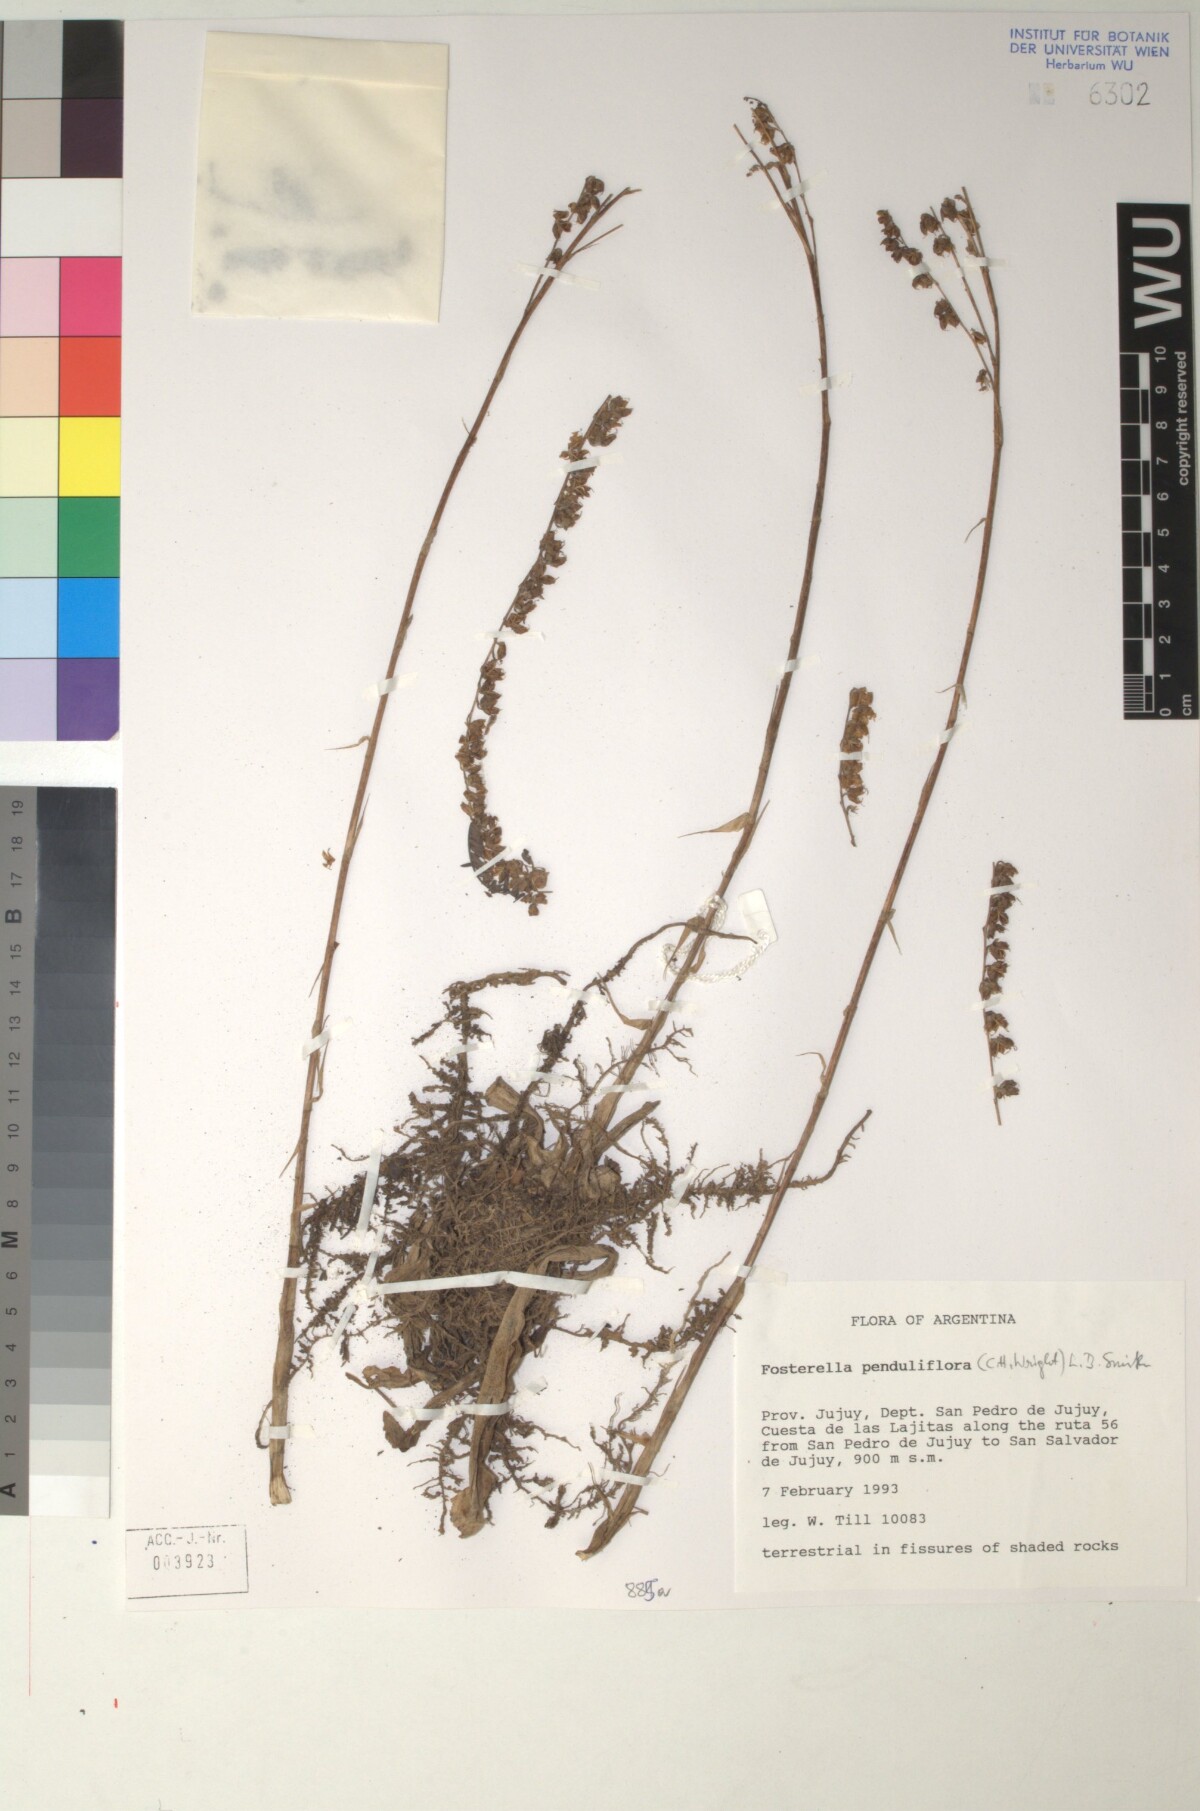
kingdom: Plantae
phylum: Tracheophyta
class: Liliopsida
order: Poales
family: Bromeliaceae
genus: Fosterella
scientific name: Fosterella penduliflora
